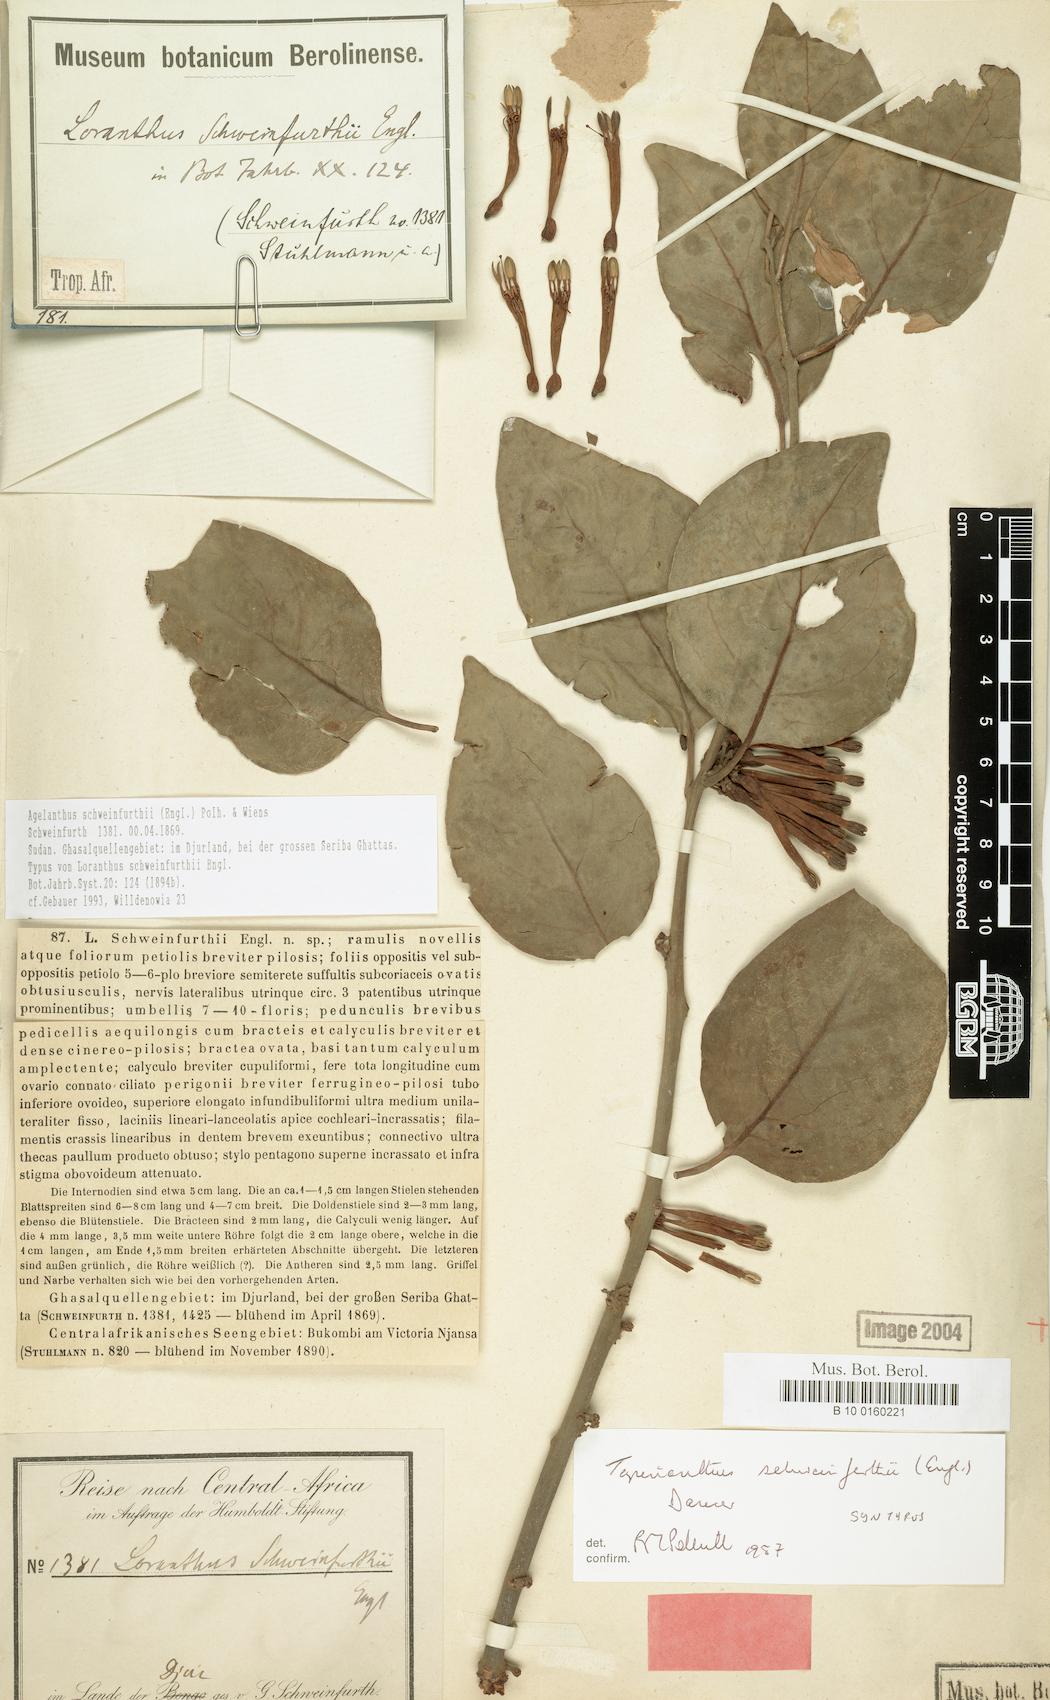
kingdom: Plantae
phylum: Tracheophyta
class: Magnoliopsida
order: Santalales
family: Loranthaceae
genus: Agelanthus
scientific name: Agelanthus schweinfurthii
